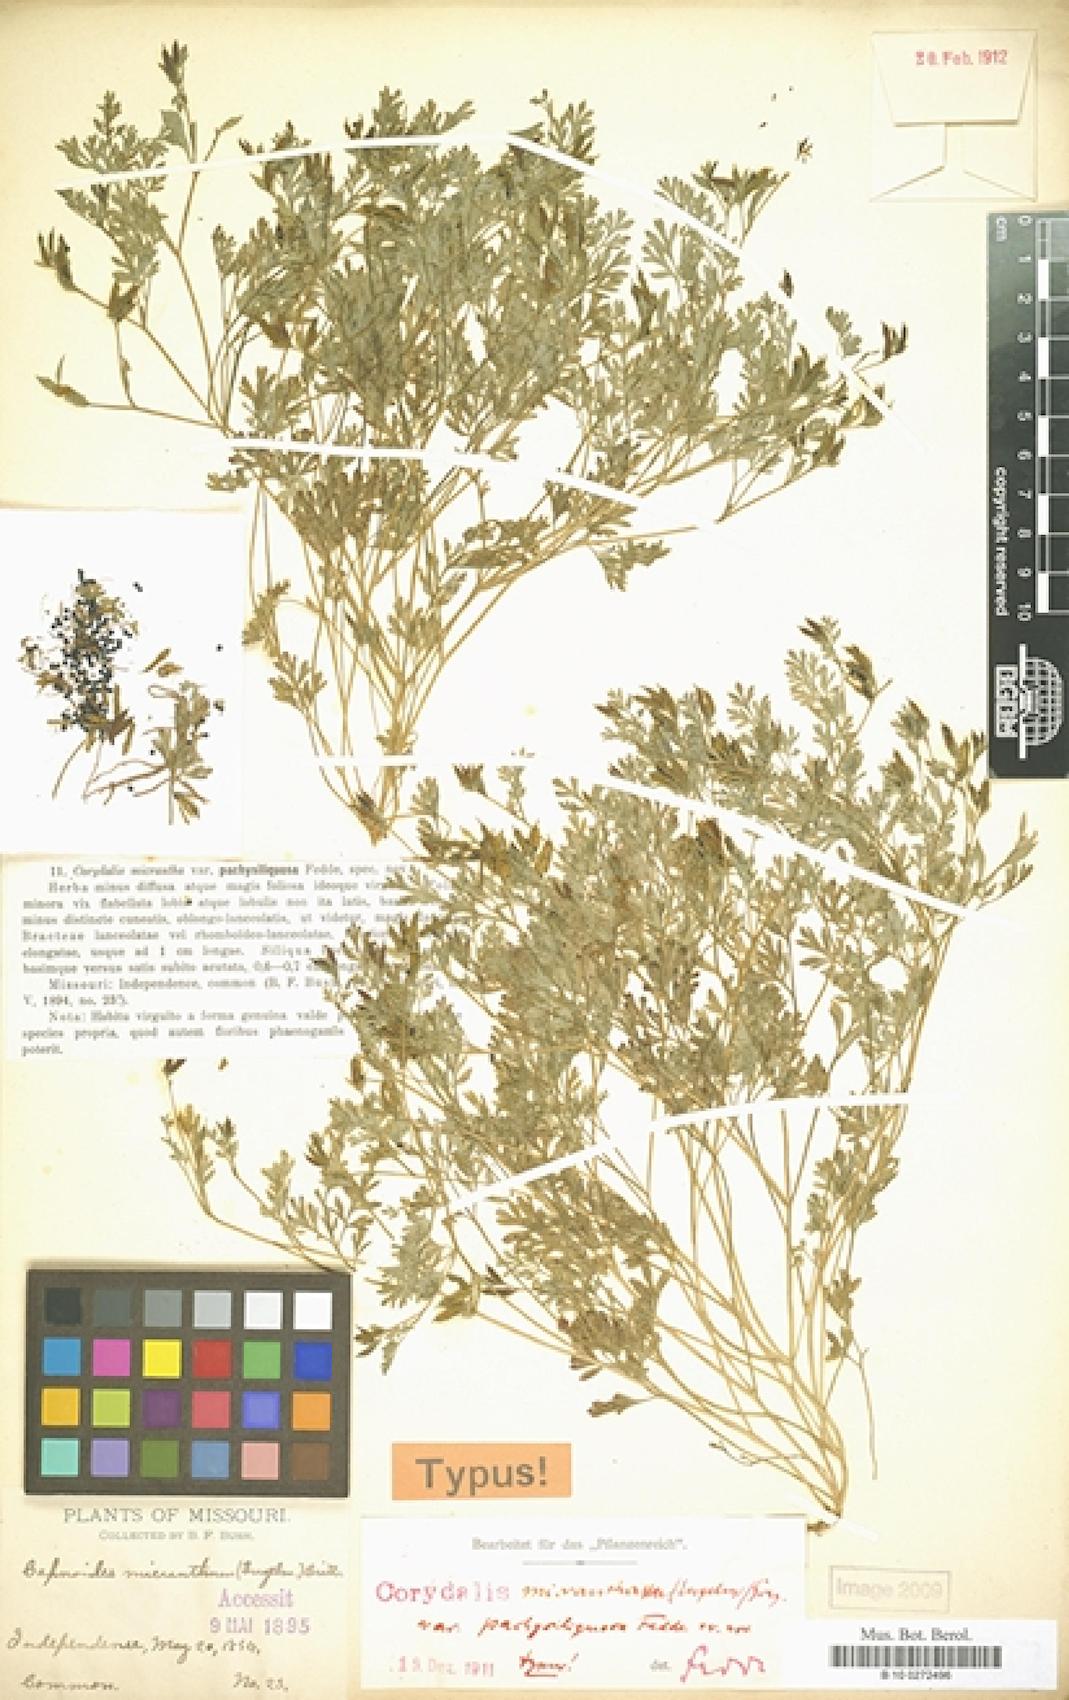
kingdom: Plantae
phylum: Tracheophyta
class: Magnoliopsida
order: Ranunculales
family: Papaveraceae
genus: Corydalis
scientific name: Corydalis micrantha
